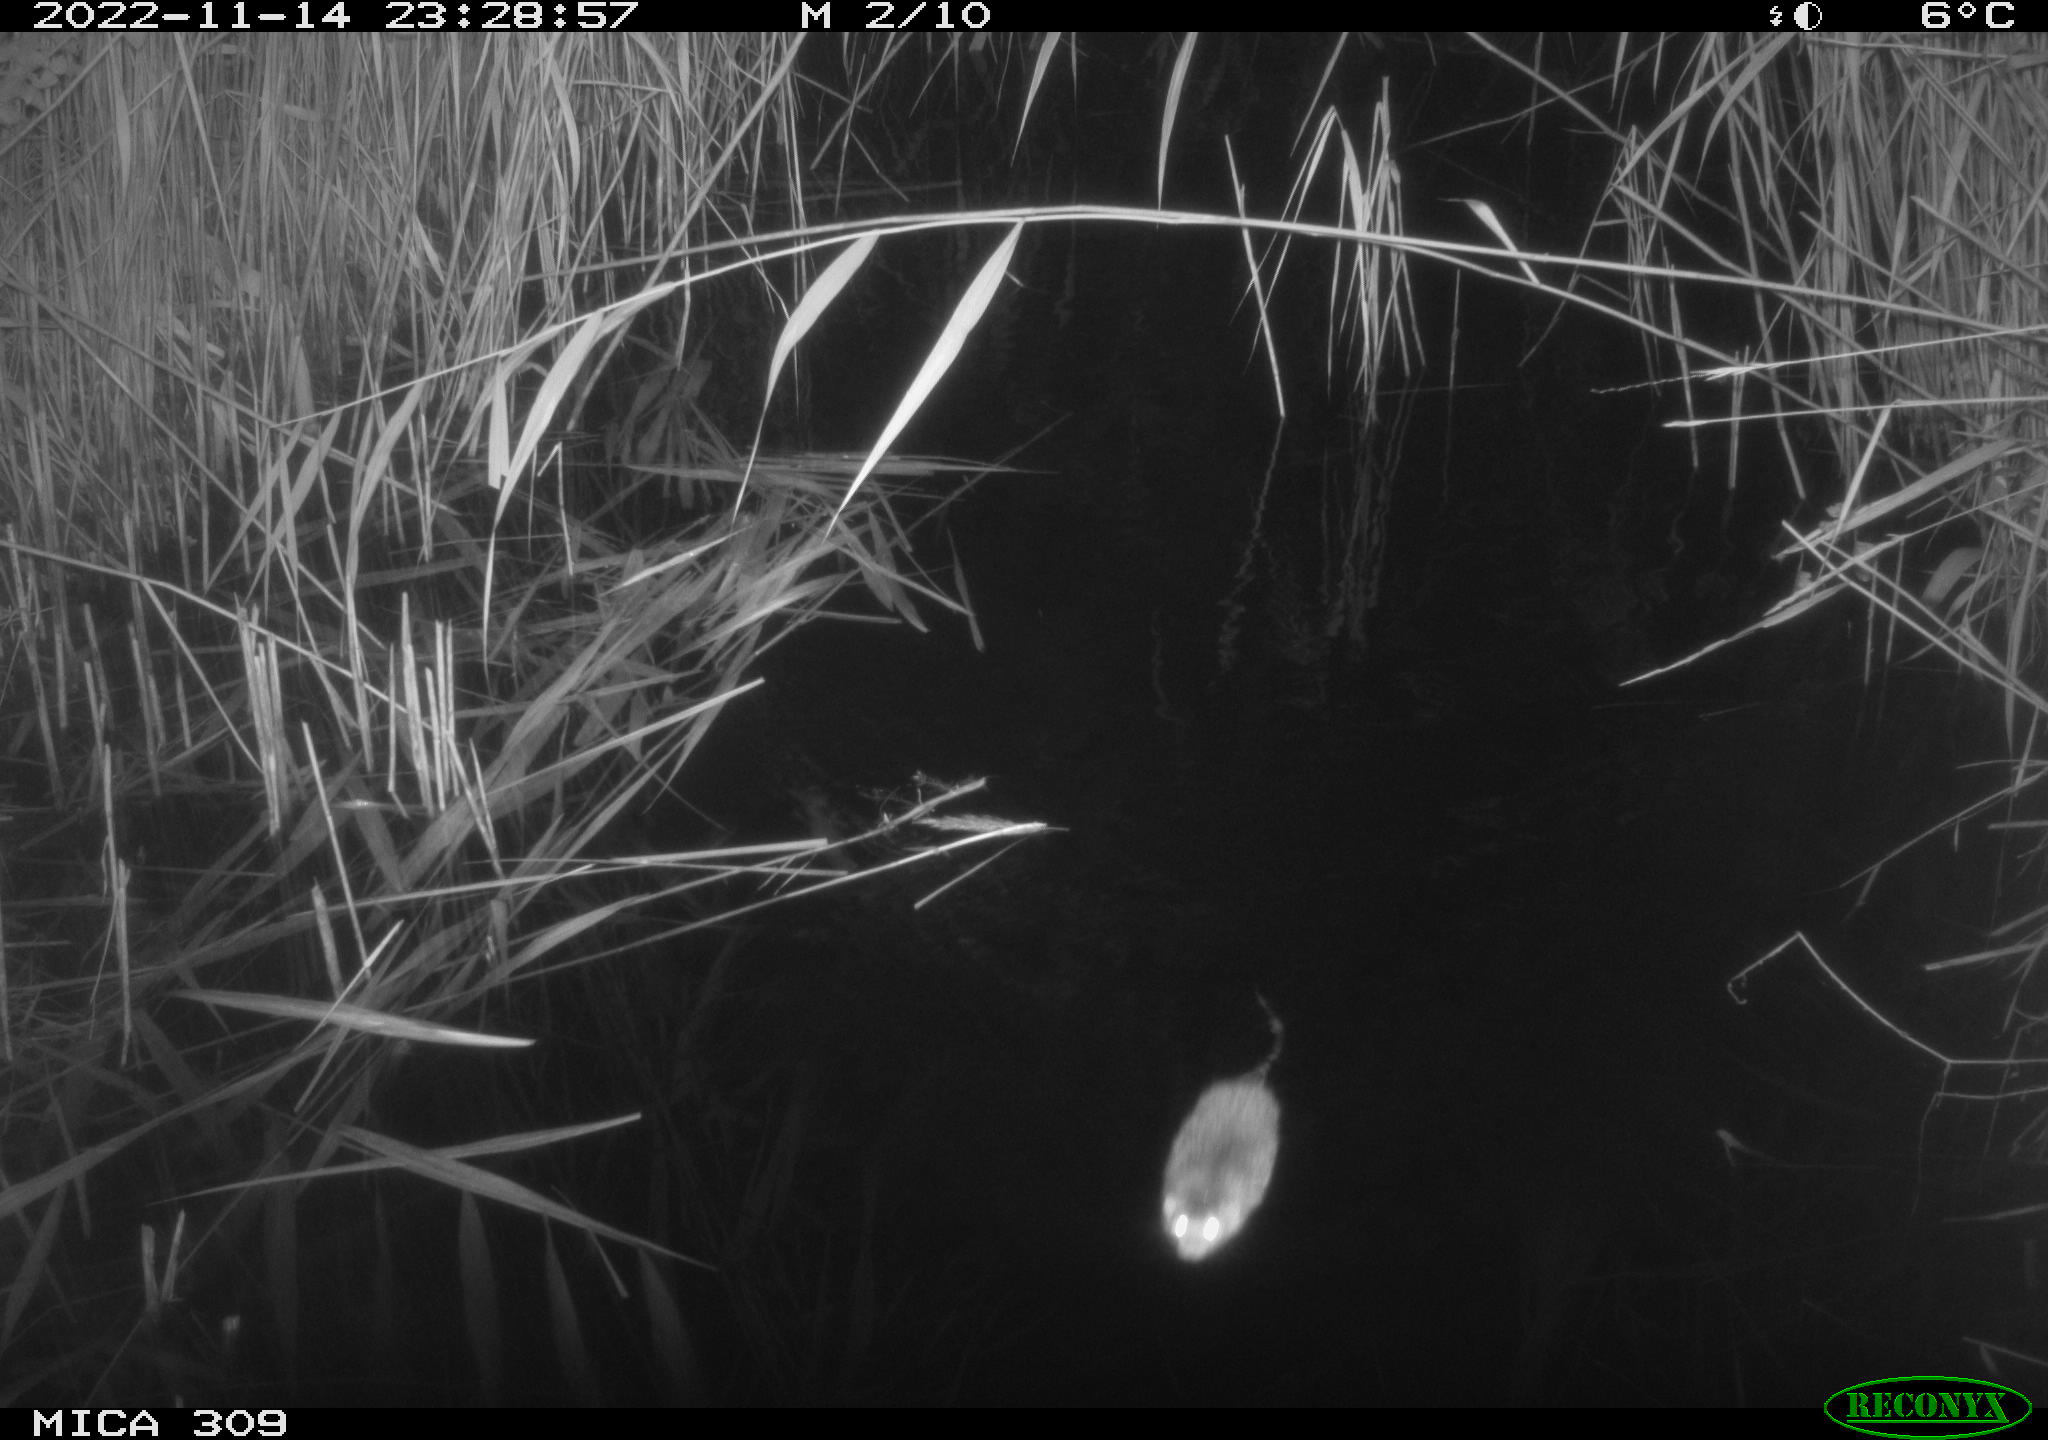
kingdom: Animalia
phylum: Chordata
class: Mammalia
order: Rodentia
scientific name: Rodentia
